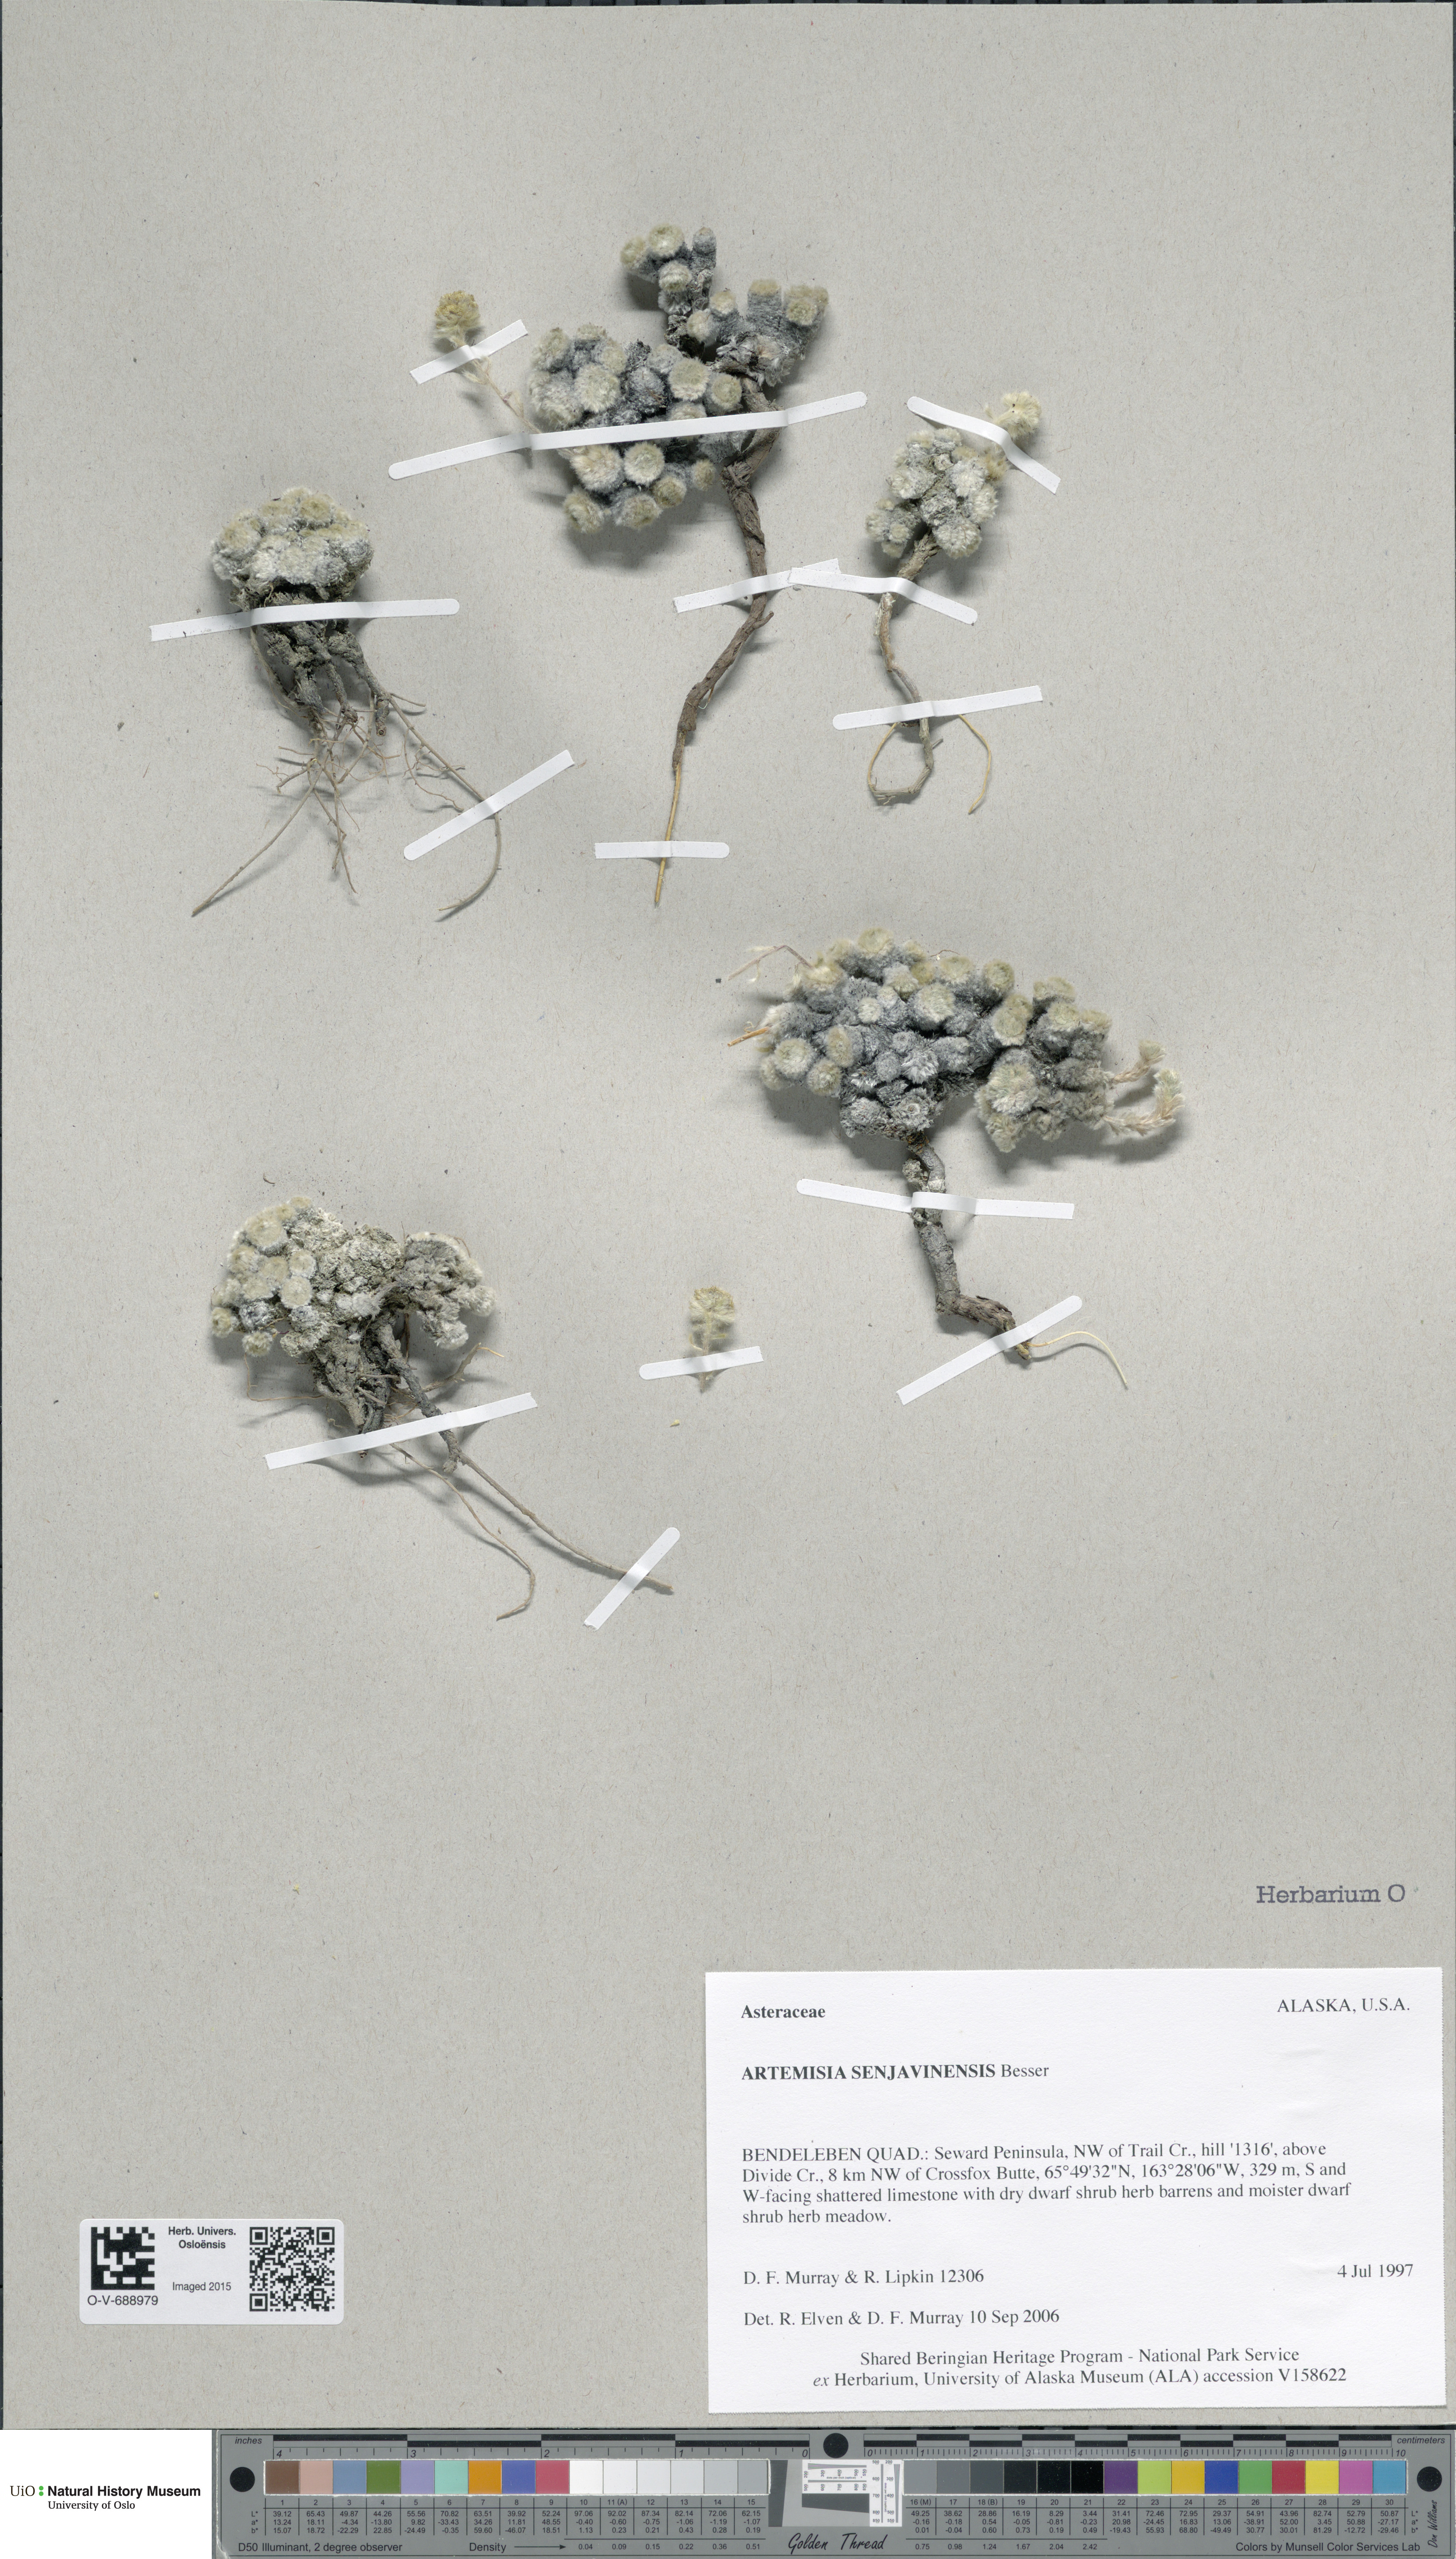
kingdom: Plantae
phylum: Tracheophyta
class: Magnoliopsida
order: Asterales
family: Asteraceae
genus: Artemisia
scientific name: Artemisia senjavinensis
